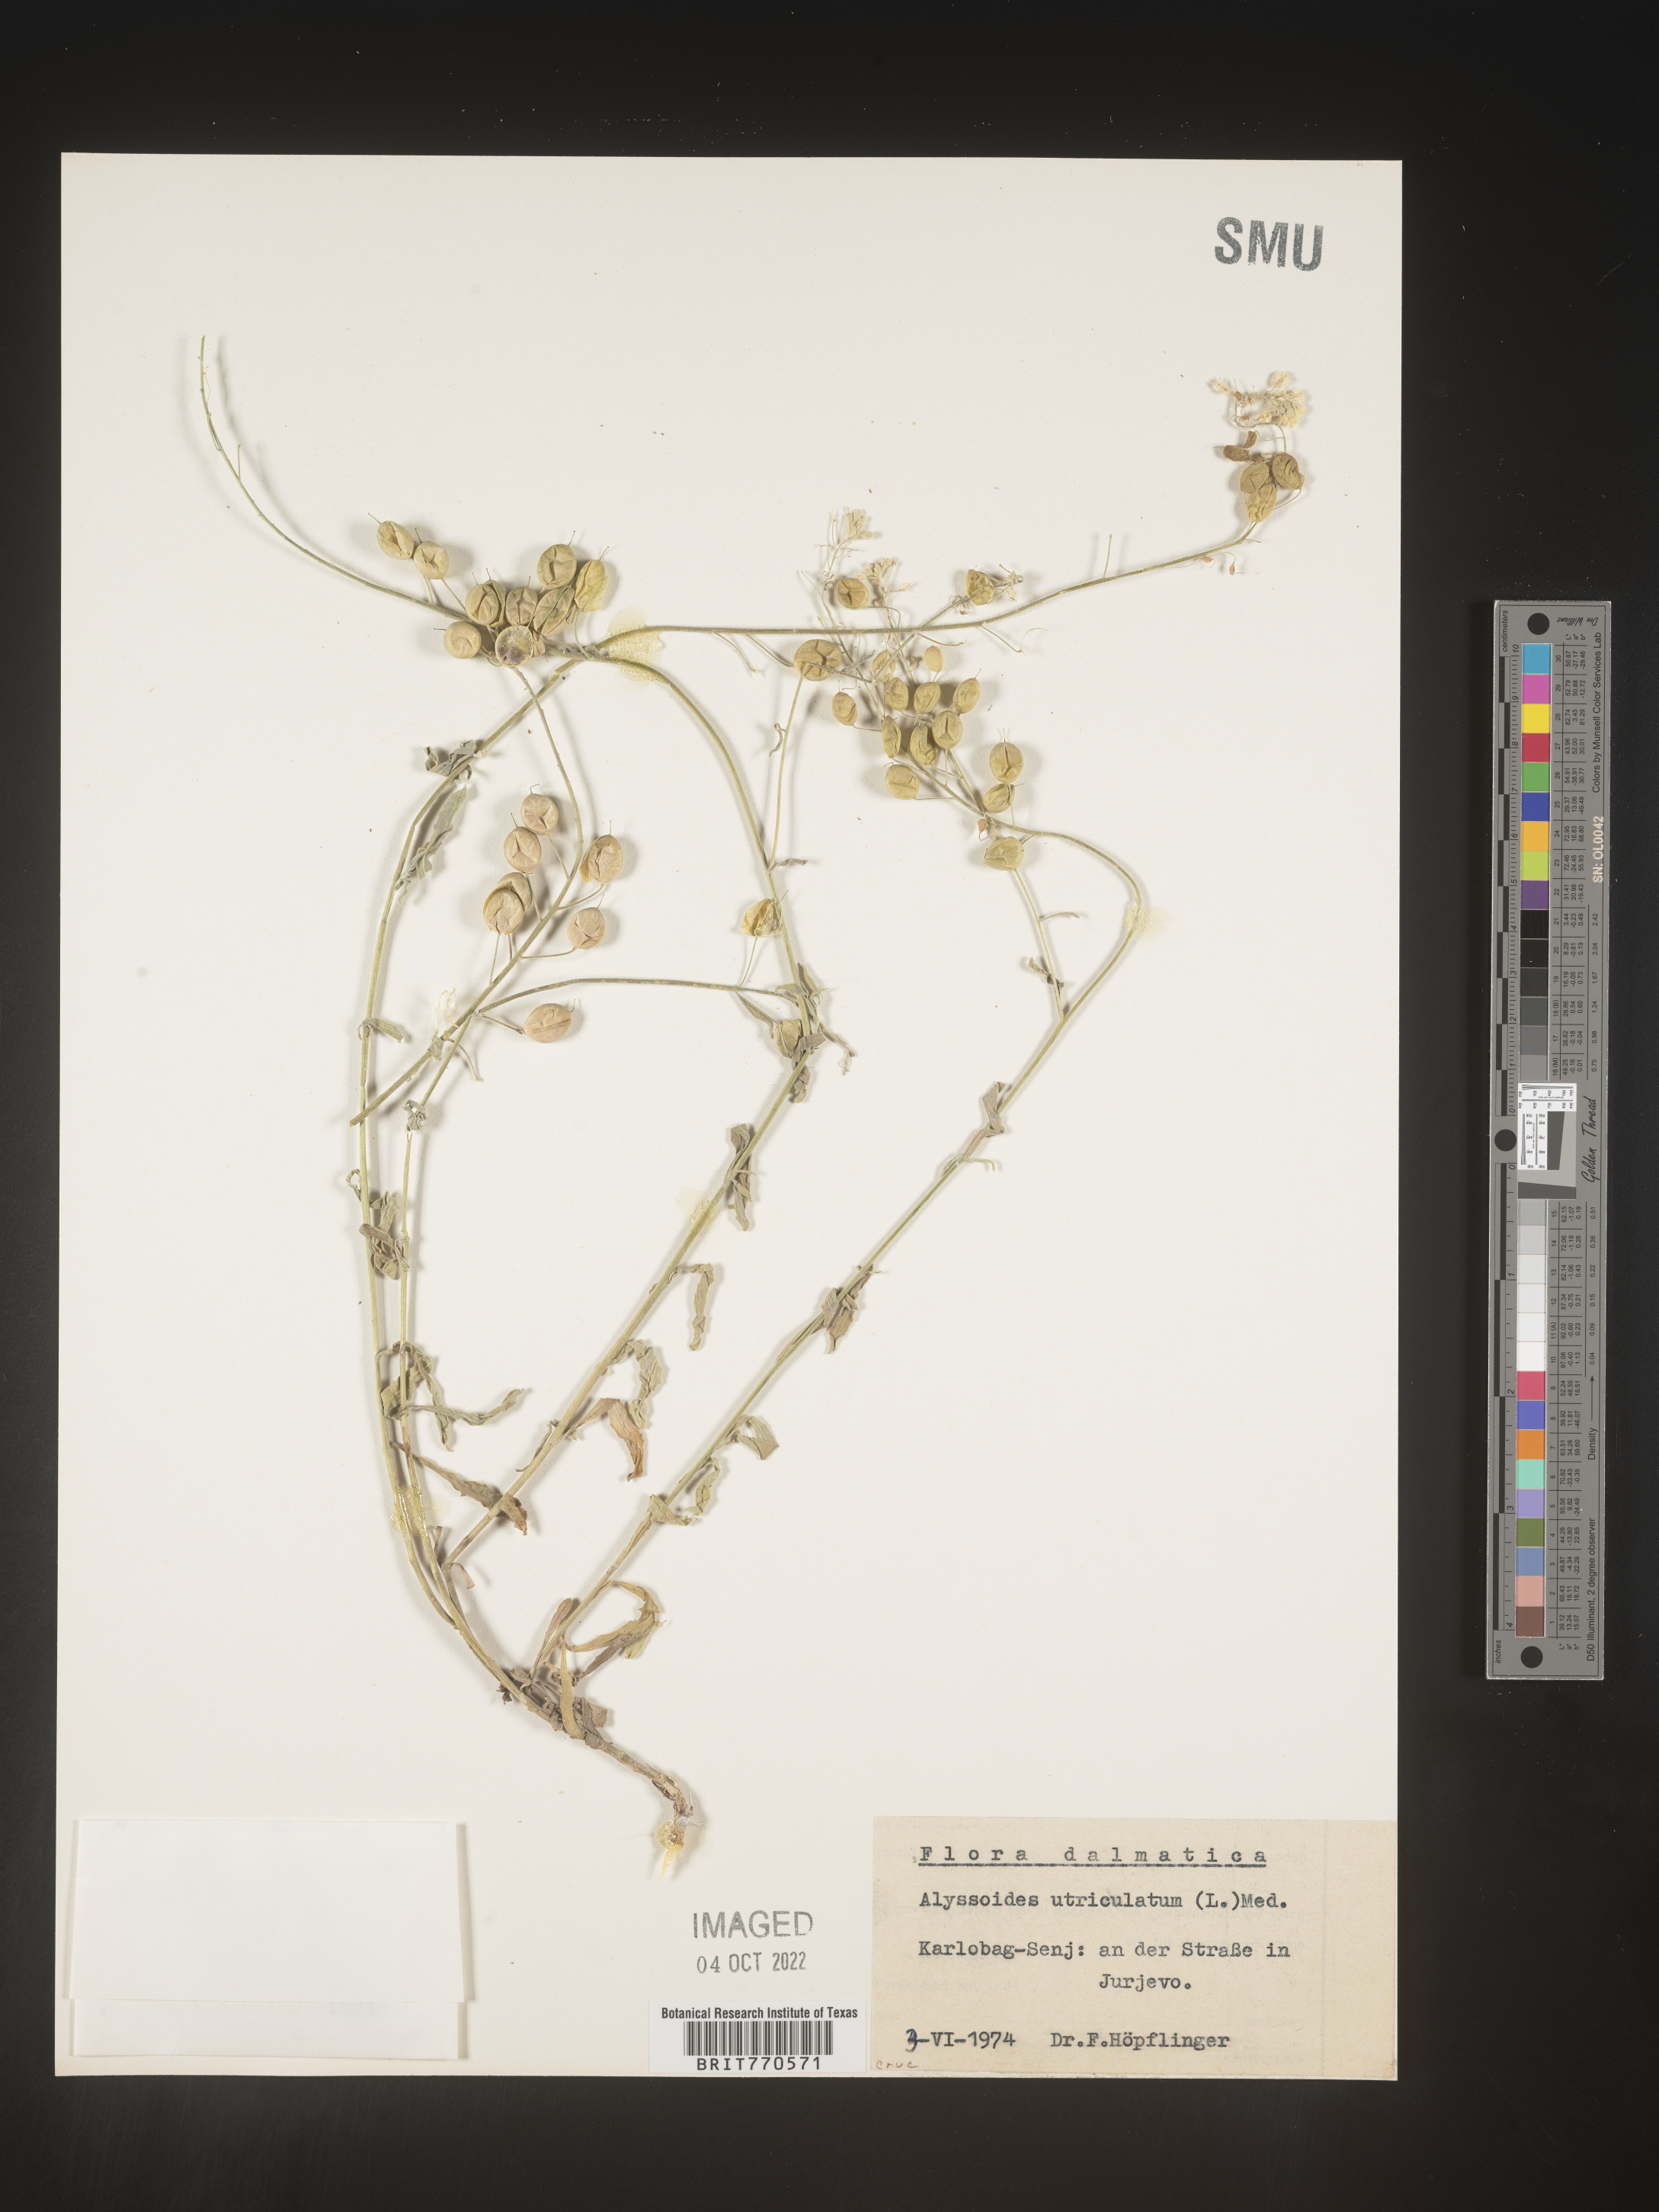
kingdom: Plantae
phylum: Tracheophyta
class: Magnoliopsida
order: Brassicales
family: Brassicaceae
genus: Alyssoides
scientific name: Alyssoides
